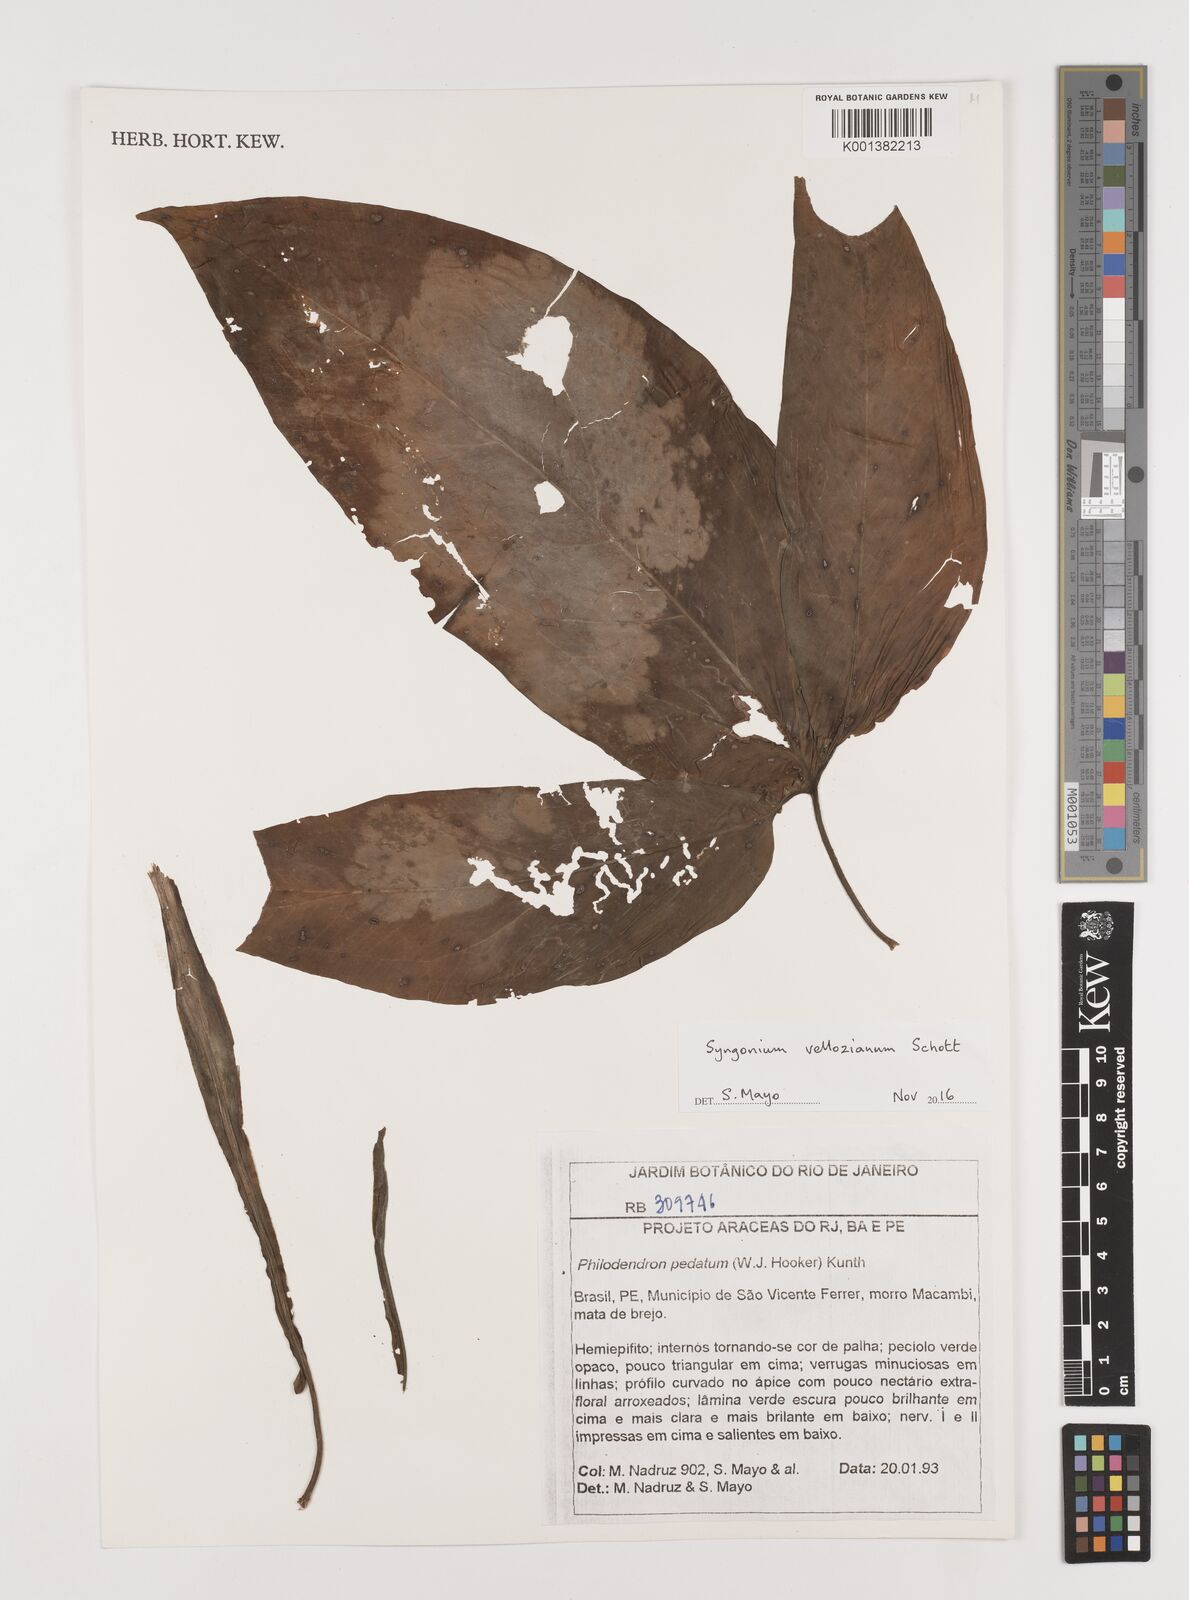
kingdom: Plantae
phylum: Tracheophyta
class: Liliopsida
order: Alismatales
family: Araceae
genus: Syngonium
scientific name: Syngonium podophyllum
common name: American evergreen
